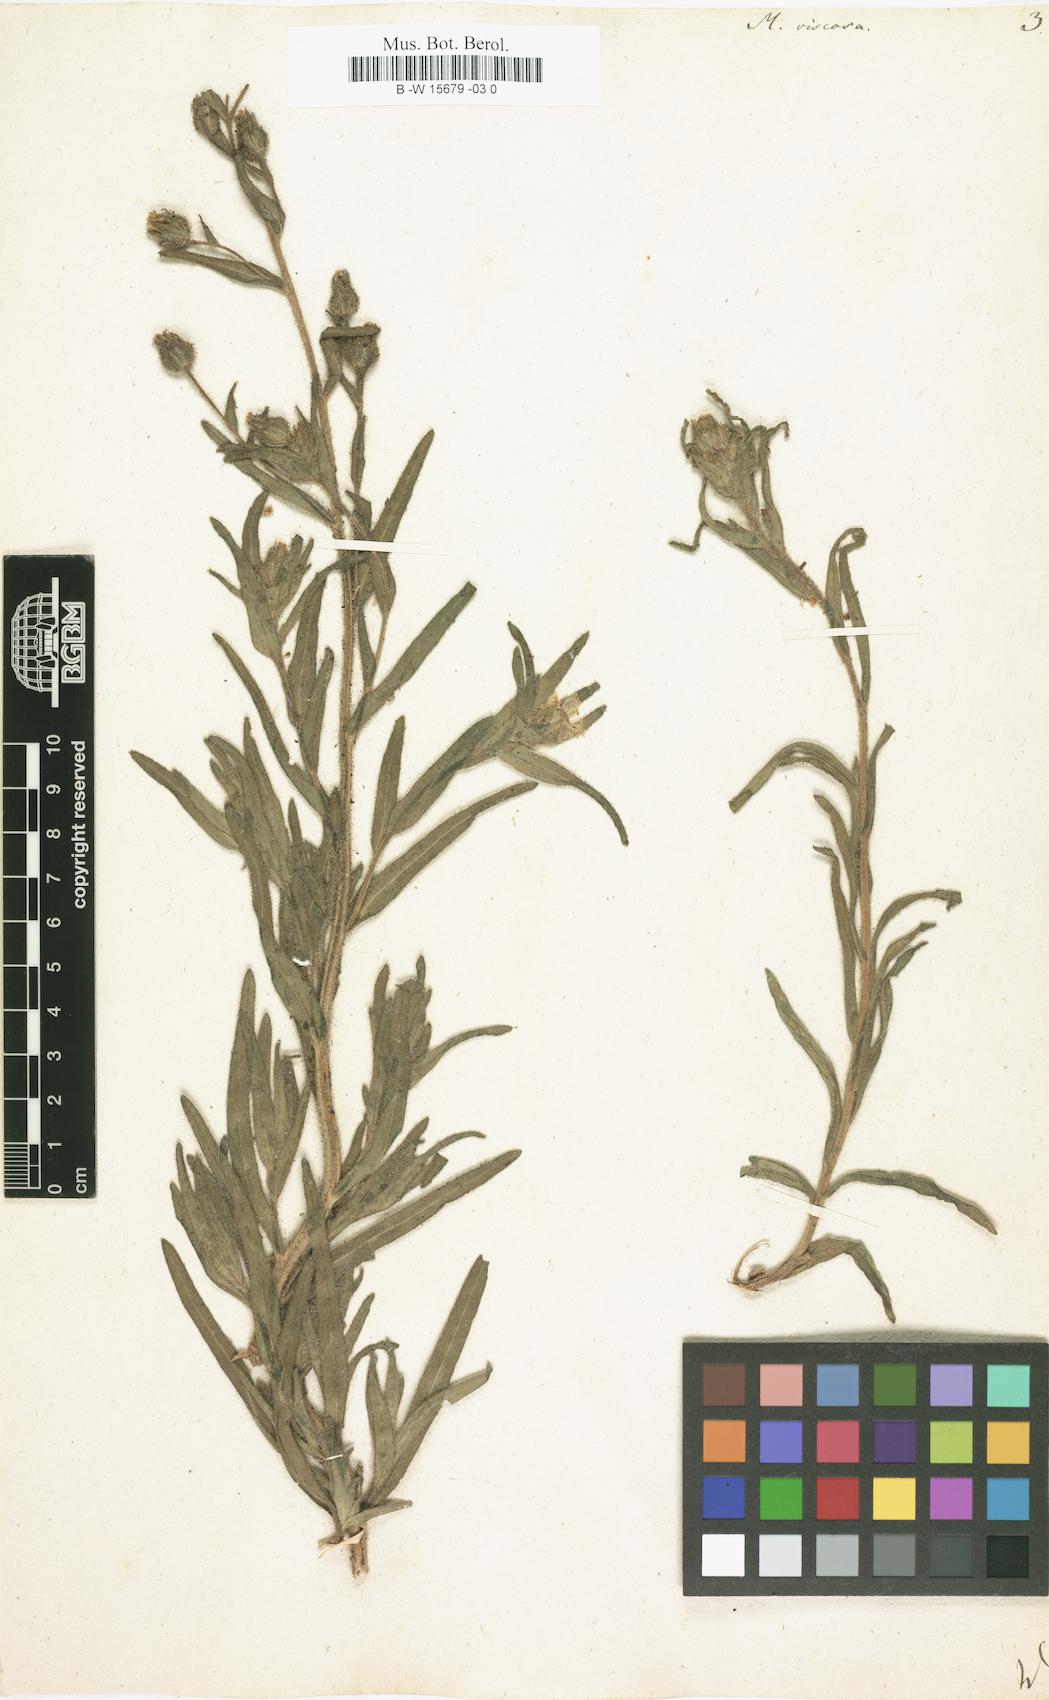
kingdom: Plantae
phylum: Tracheophyta
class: Magnoliopsida
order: Asterales
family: Asteraceae
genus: Madia
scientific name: Madia sativa
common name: Coast tarweed
